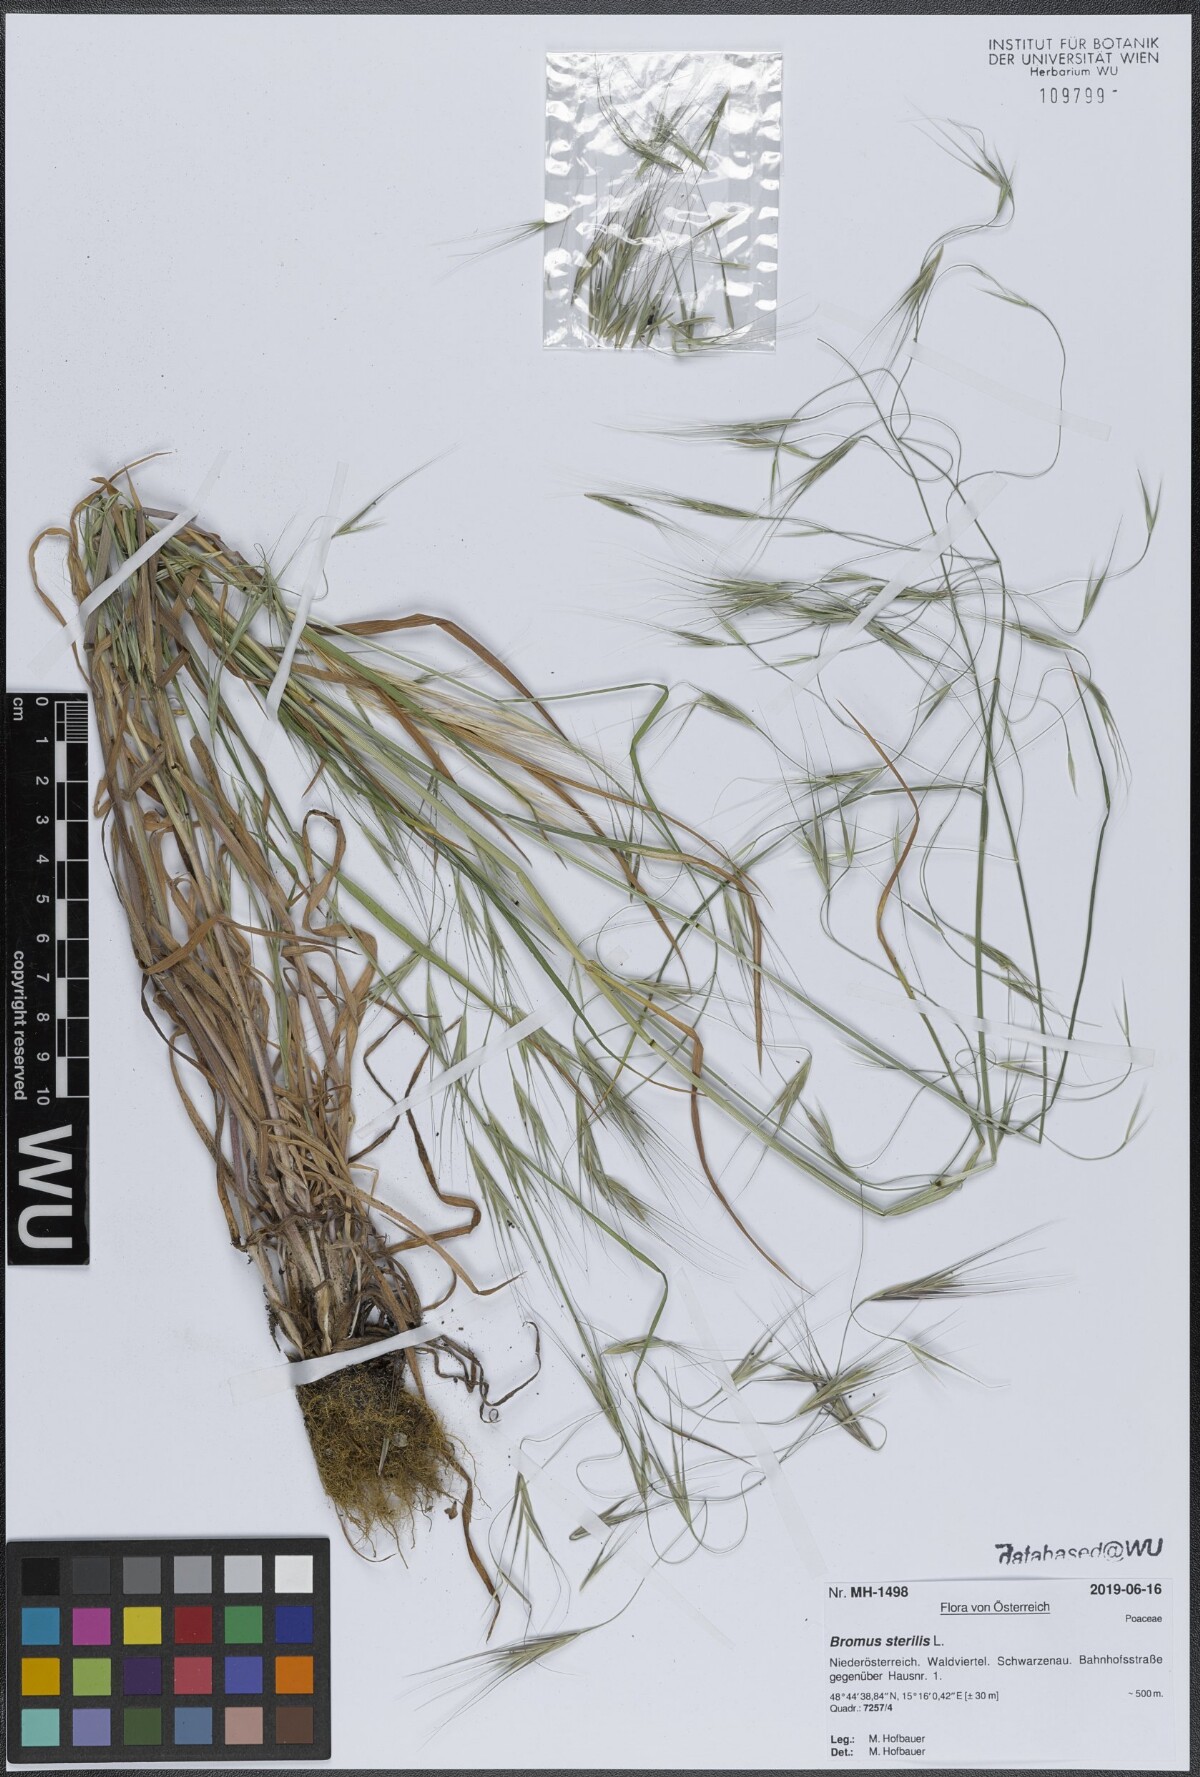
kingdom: Plantae
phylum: Tracheophyta
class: Liliopsida
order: Poales
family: Poaceae
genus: Bromus
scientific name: Bromus sterilis
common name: Poverty brome
